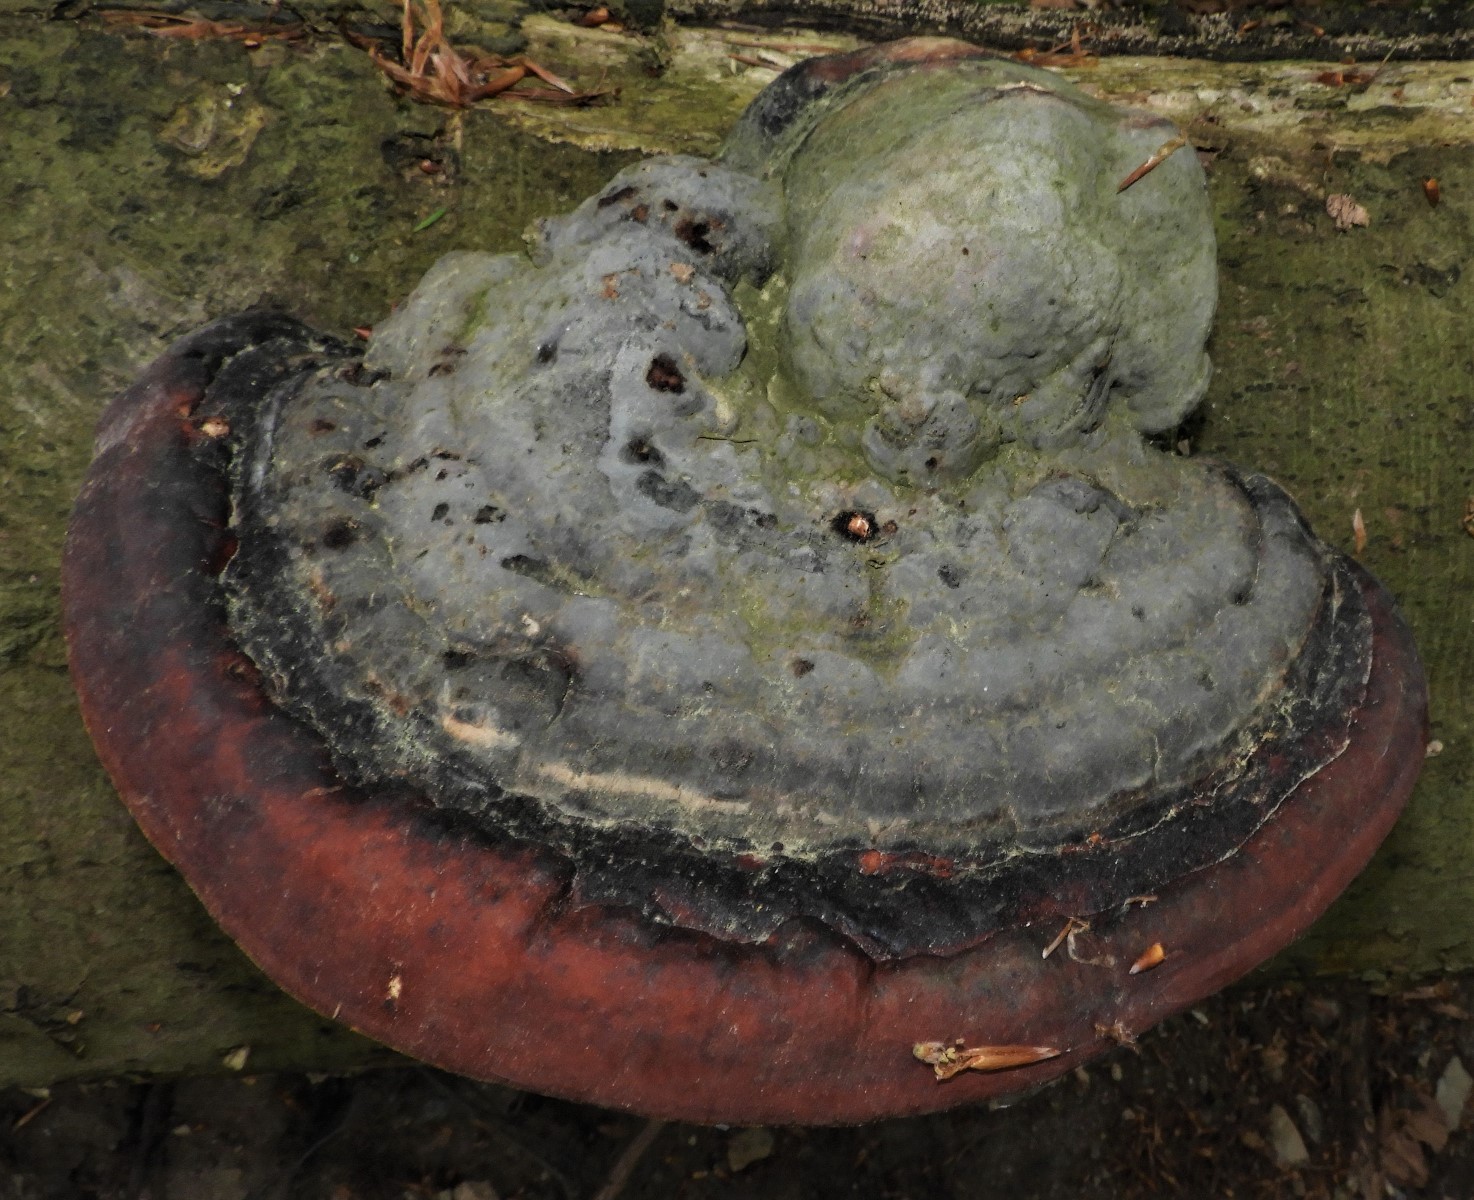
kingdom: Fungi
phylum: Basidiomycota
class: Agaricomycetes
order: Polyporales
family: Fomitopsidaceae
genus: Fomitopsis
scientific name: Fomitopsis pinicola
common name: randbæltet hovporesvamp
